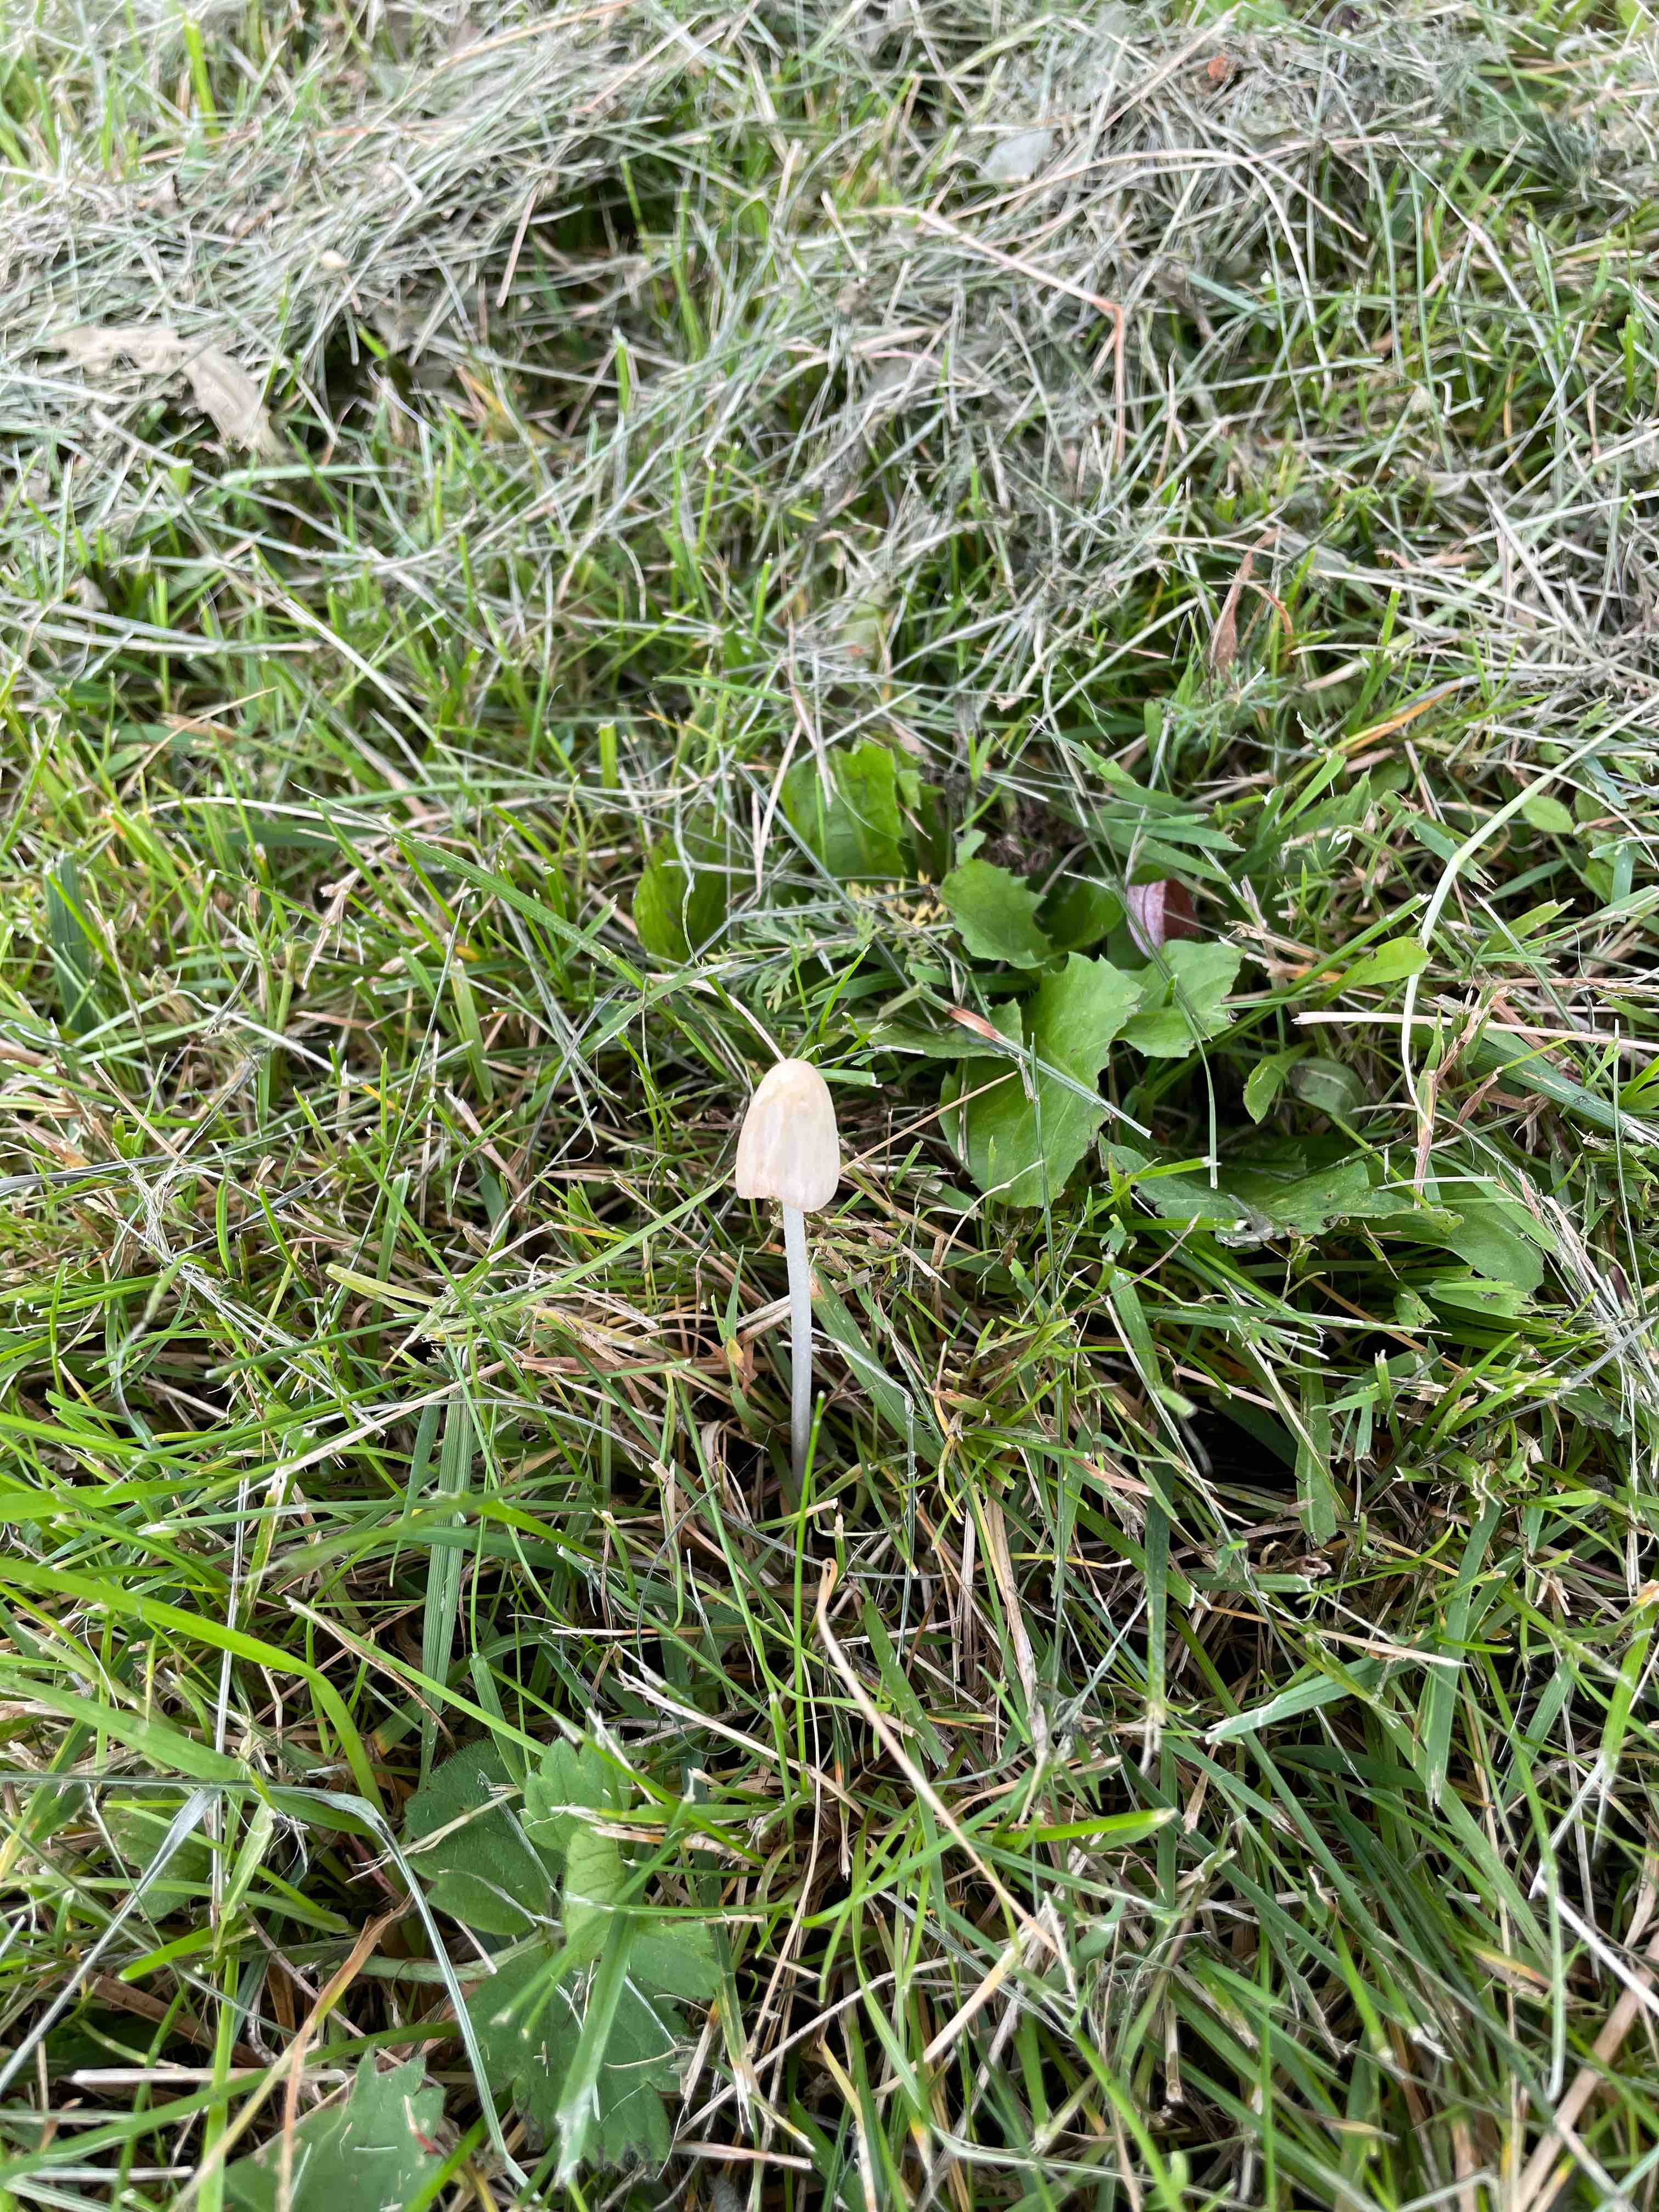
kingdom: Fungi
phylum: Basidiomycota
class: Agaricomycetes
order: Agaricales
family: Bolbitiaceae
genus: Conocybe
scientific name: Conocybe apala
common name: mælkehvid keglehat
